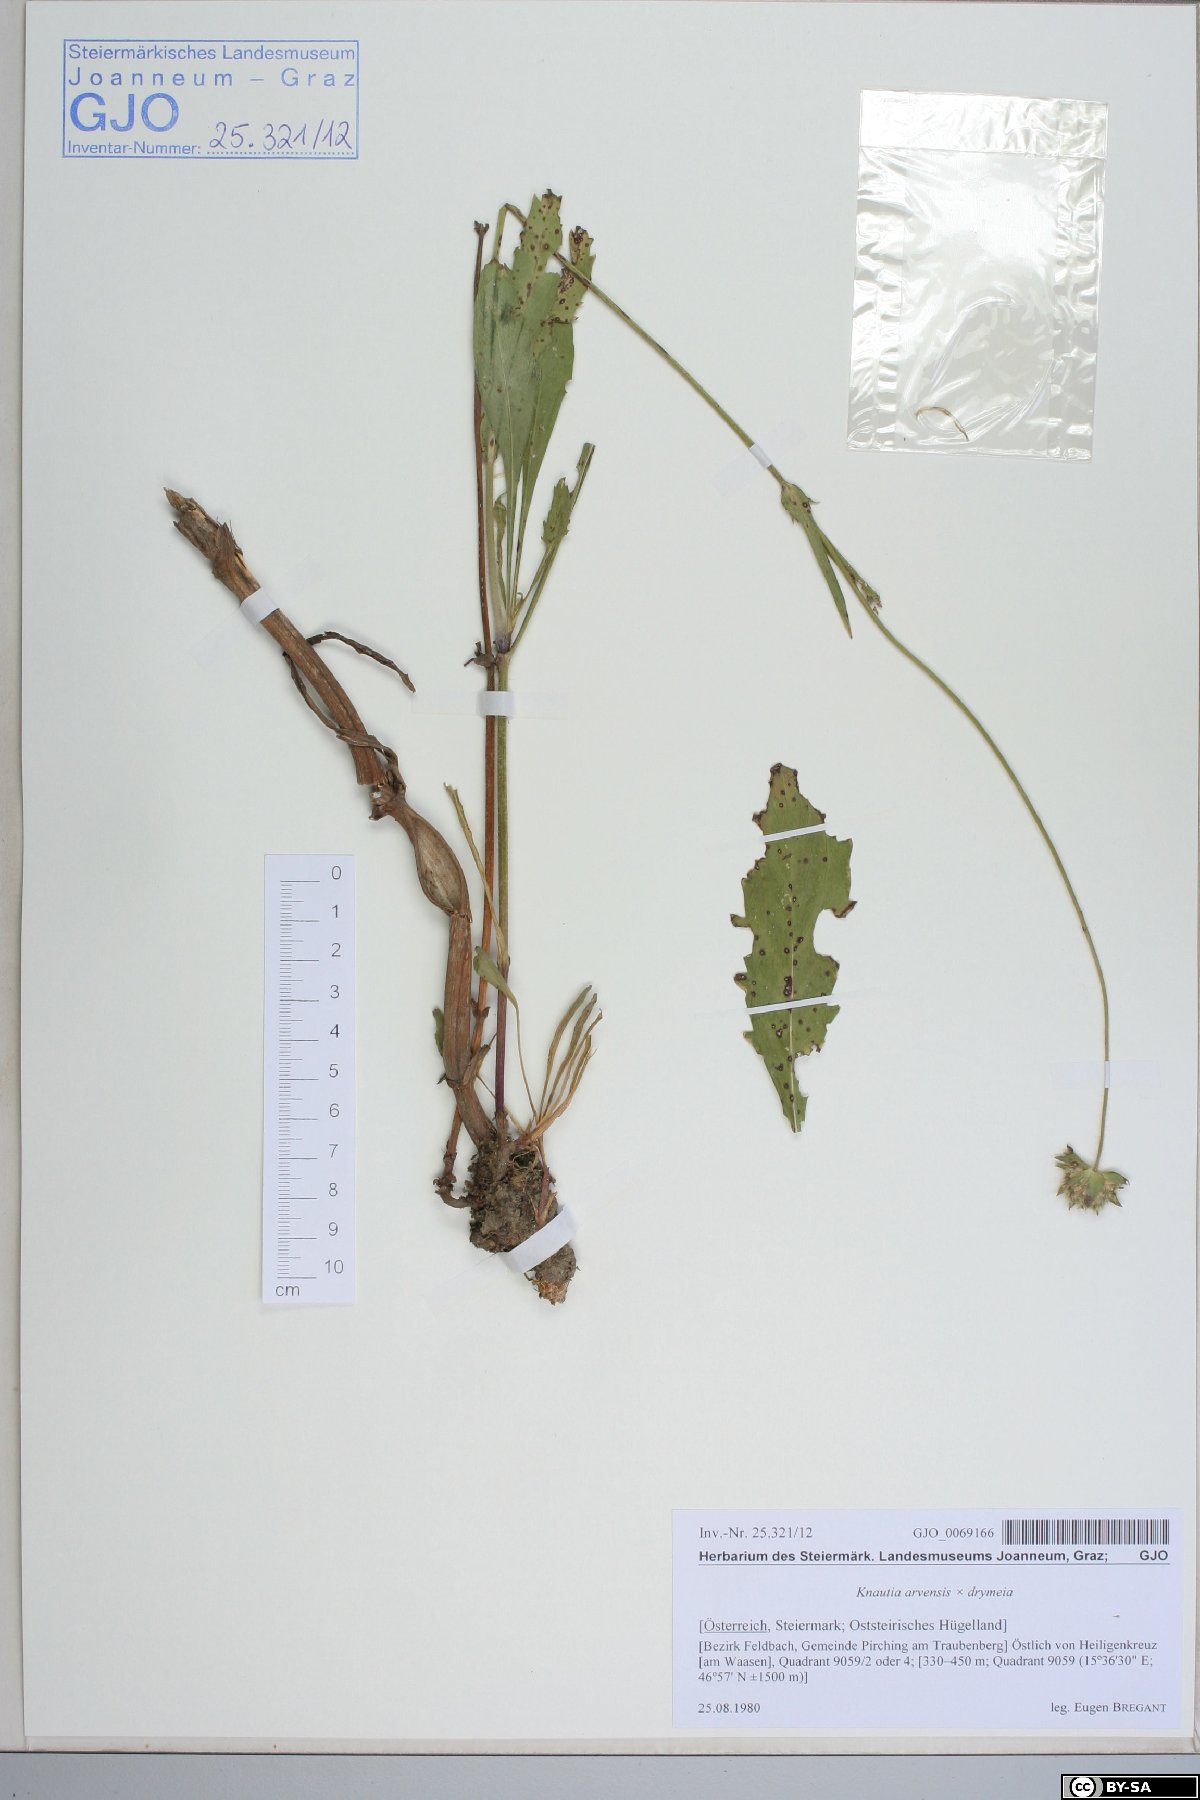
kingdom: Plantae
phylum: Tracheophyta
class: Magnoliopsida
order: Dipsacales
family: Dipsacaceae
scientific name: Dipsacaceae
